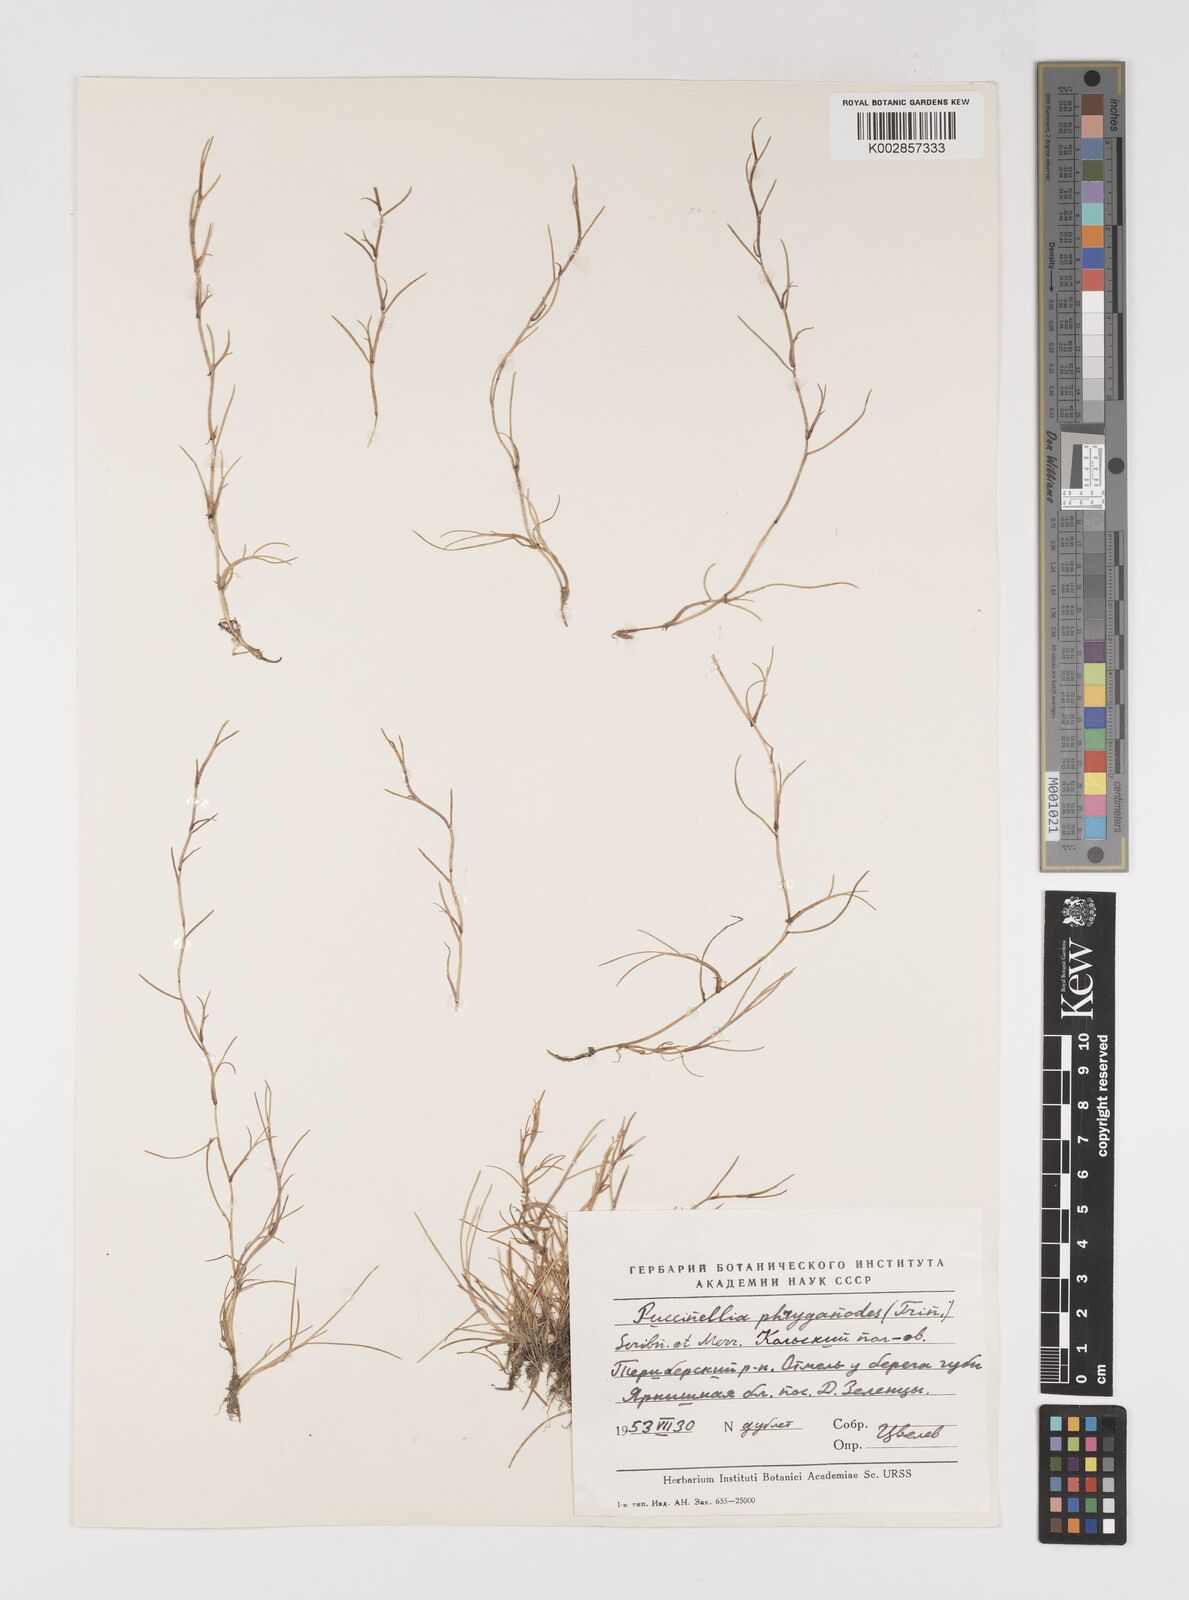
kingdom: Plantae
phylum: Tracheophyta
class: Liliopsida
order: Poales
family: Poaceae
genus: Puccinellia
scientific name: Puccinellia phryganodes
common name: Creeping alkaligrass
